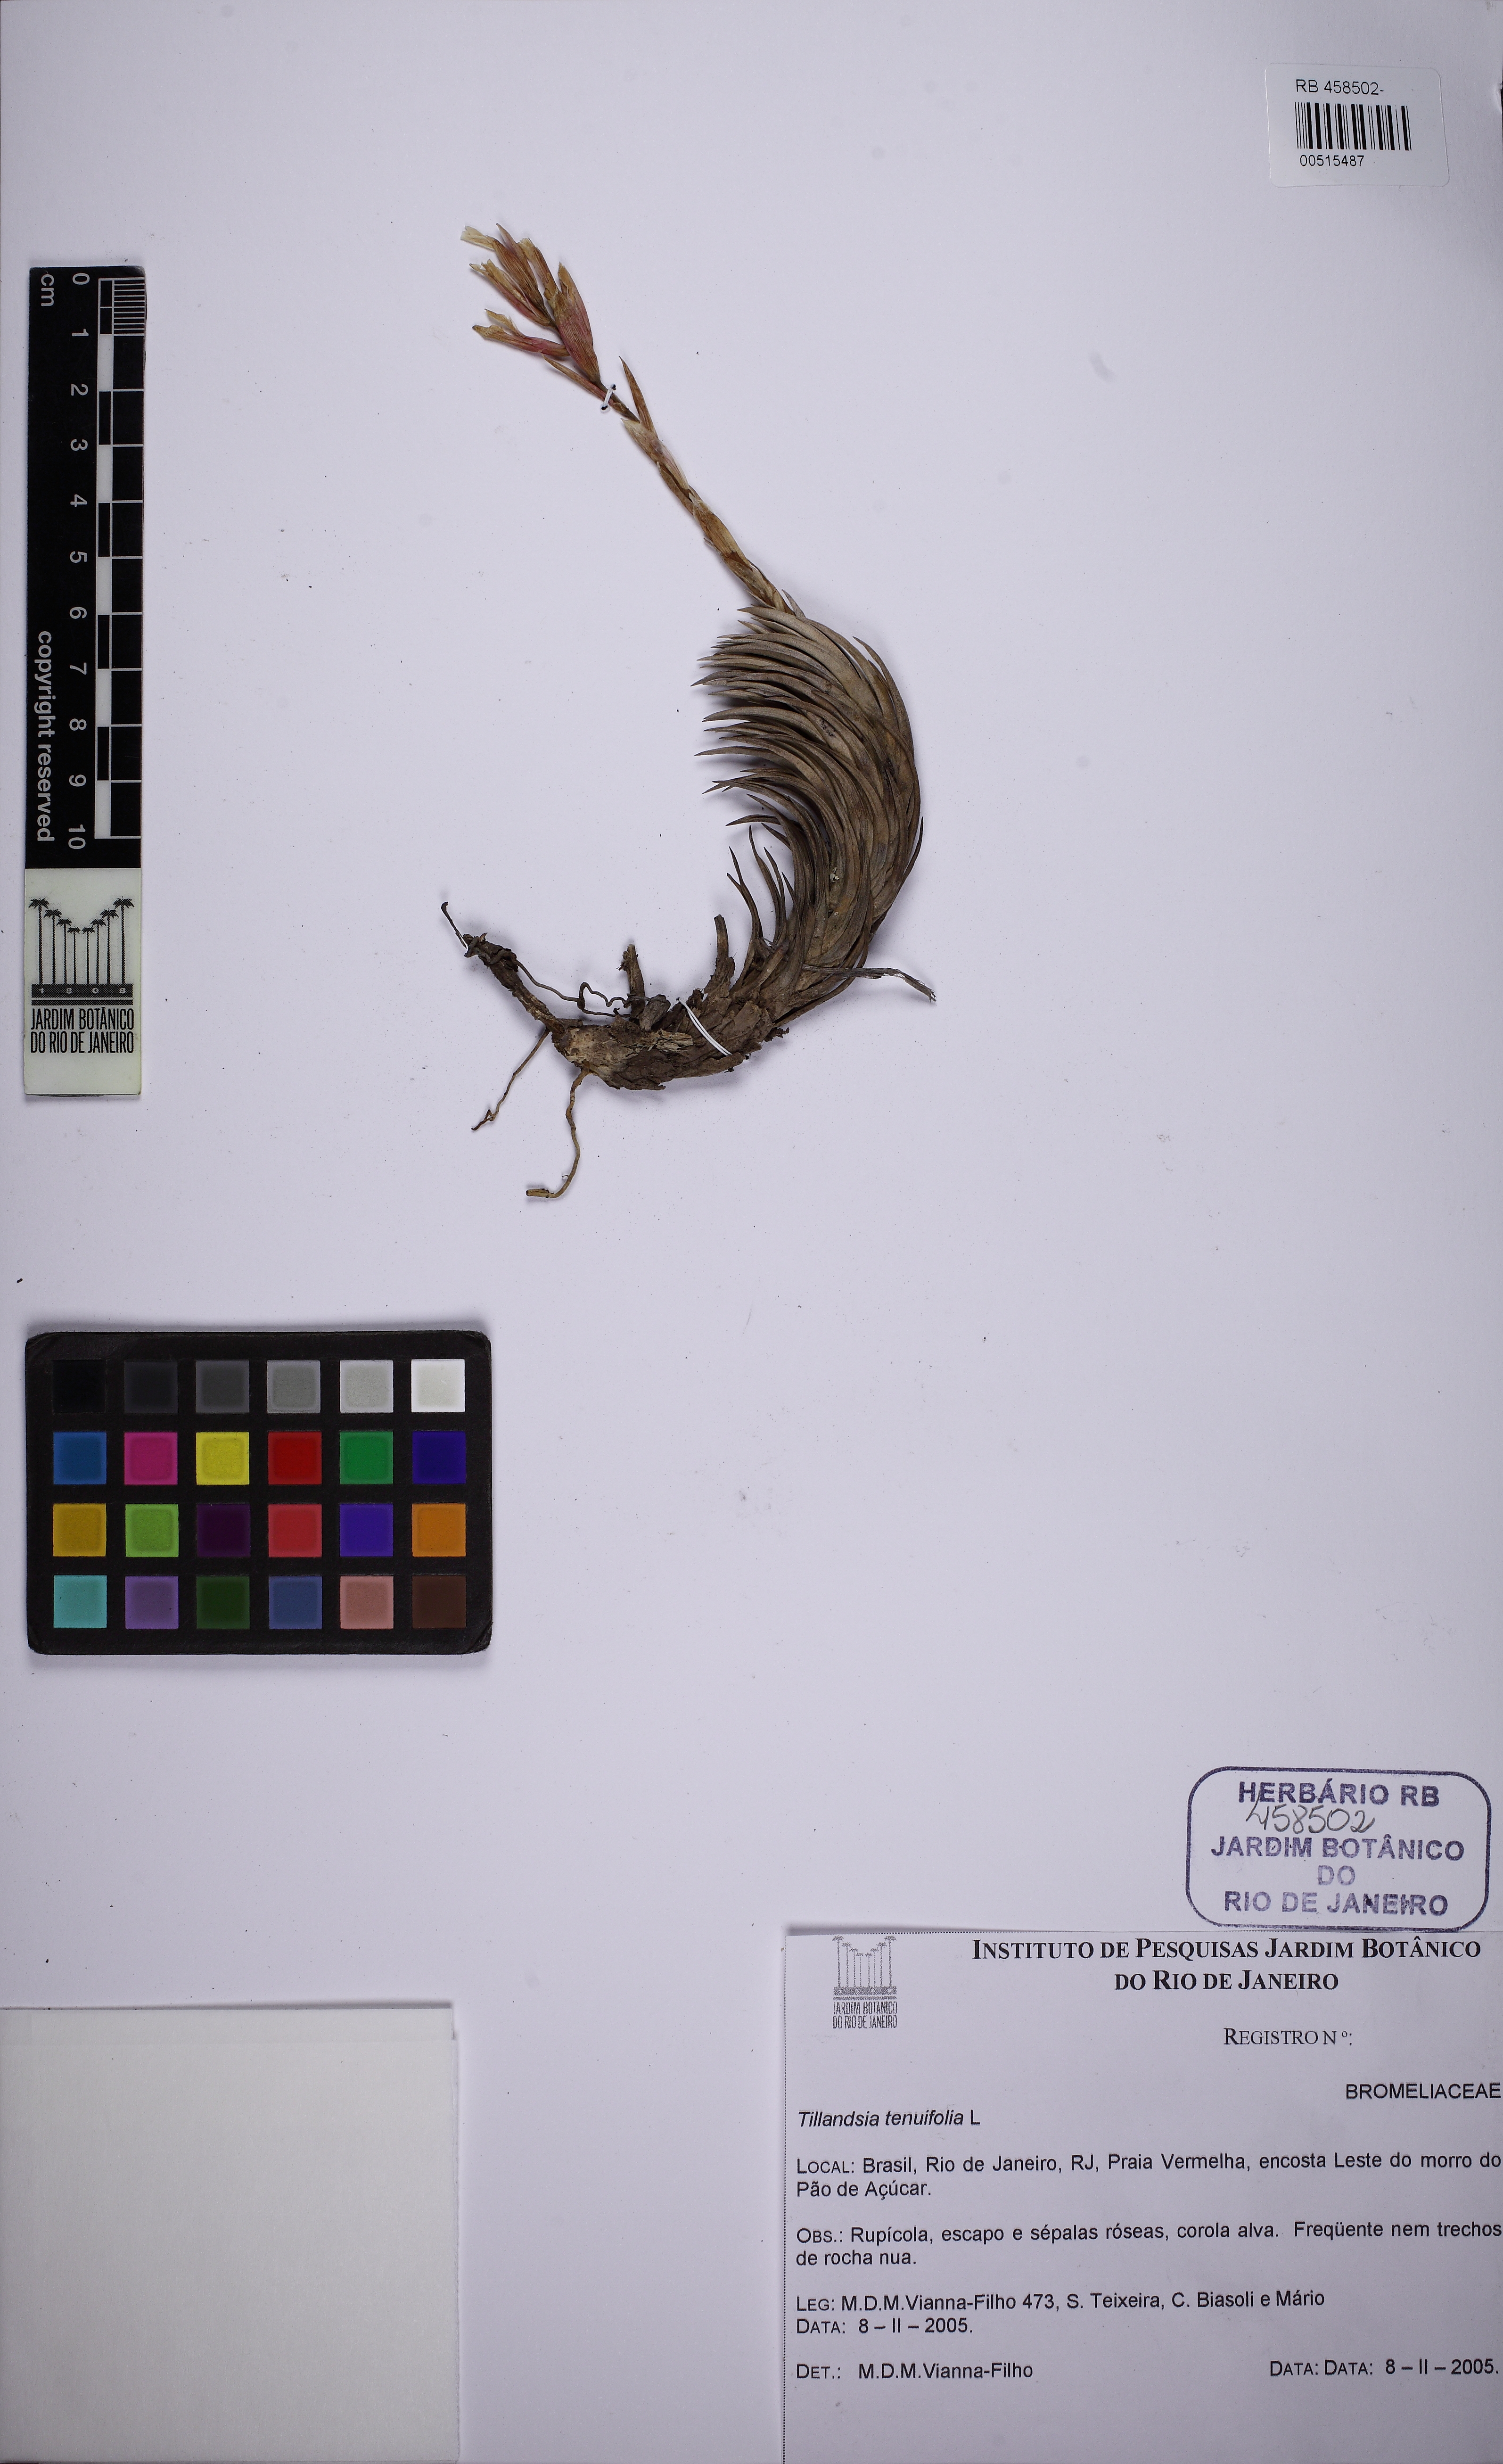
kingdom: Plantae
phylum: Tracheophyta
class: Liliopsida
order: Poales
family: Bromeliaceae
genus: Tillandsia
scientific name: Tillandsia araujei
